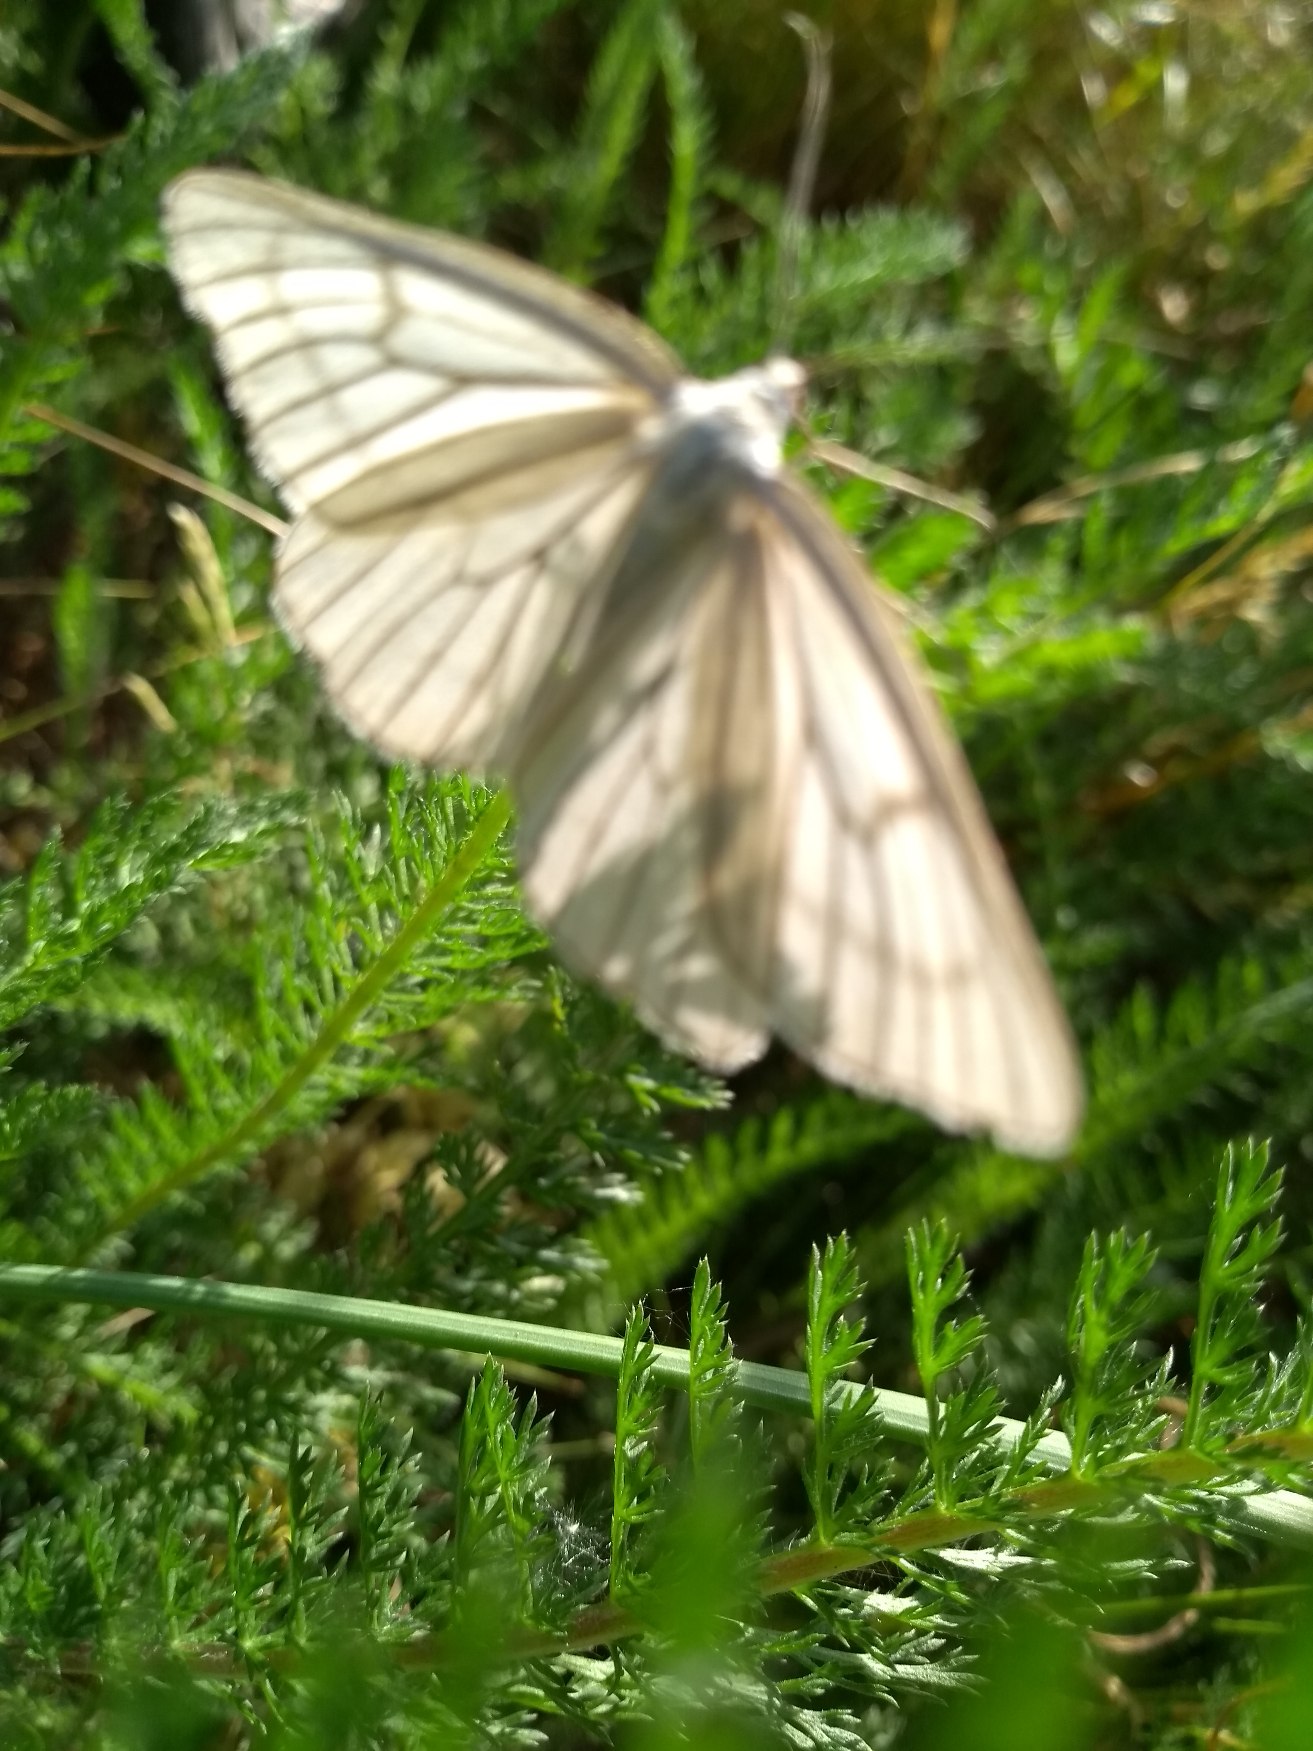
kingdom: Animalia
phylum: Arthropoda
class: Insecta
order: Lepidoptera
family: Geometridae
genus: Siona
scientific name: Siona lineata
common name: Hvidvingemåler
